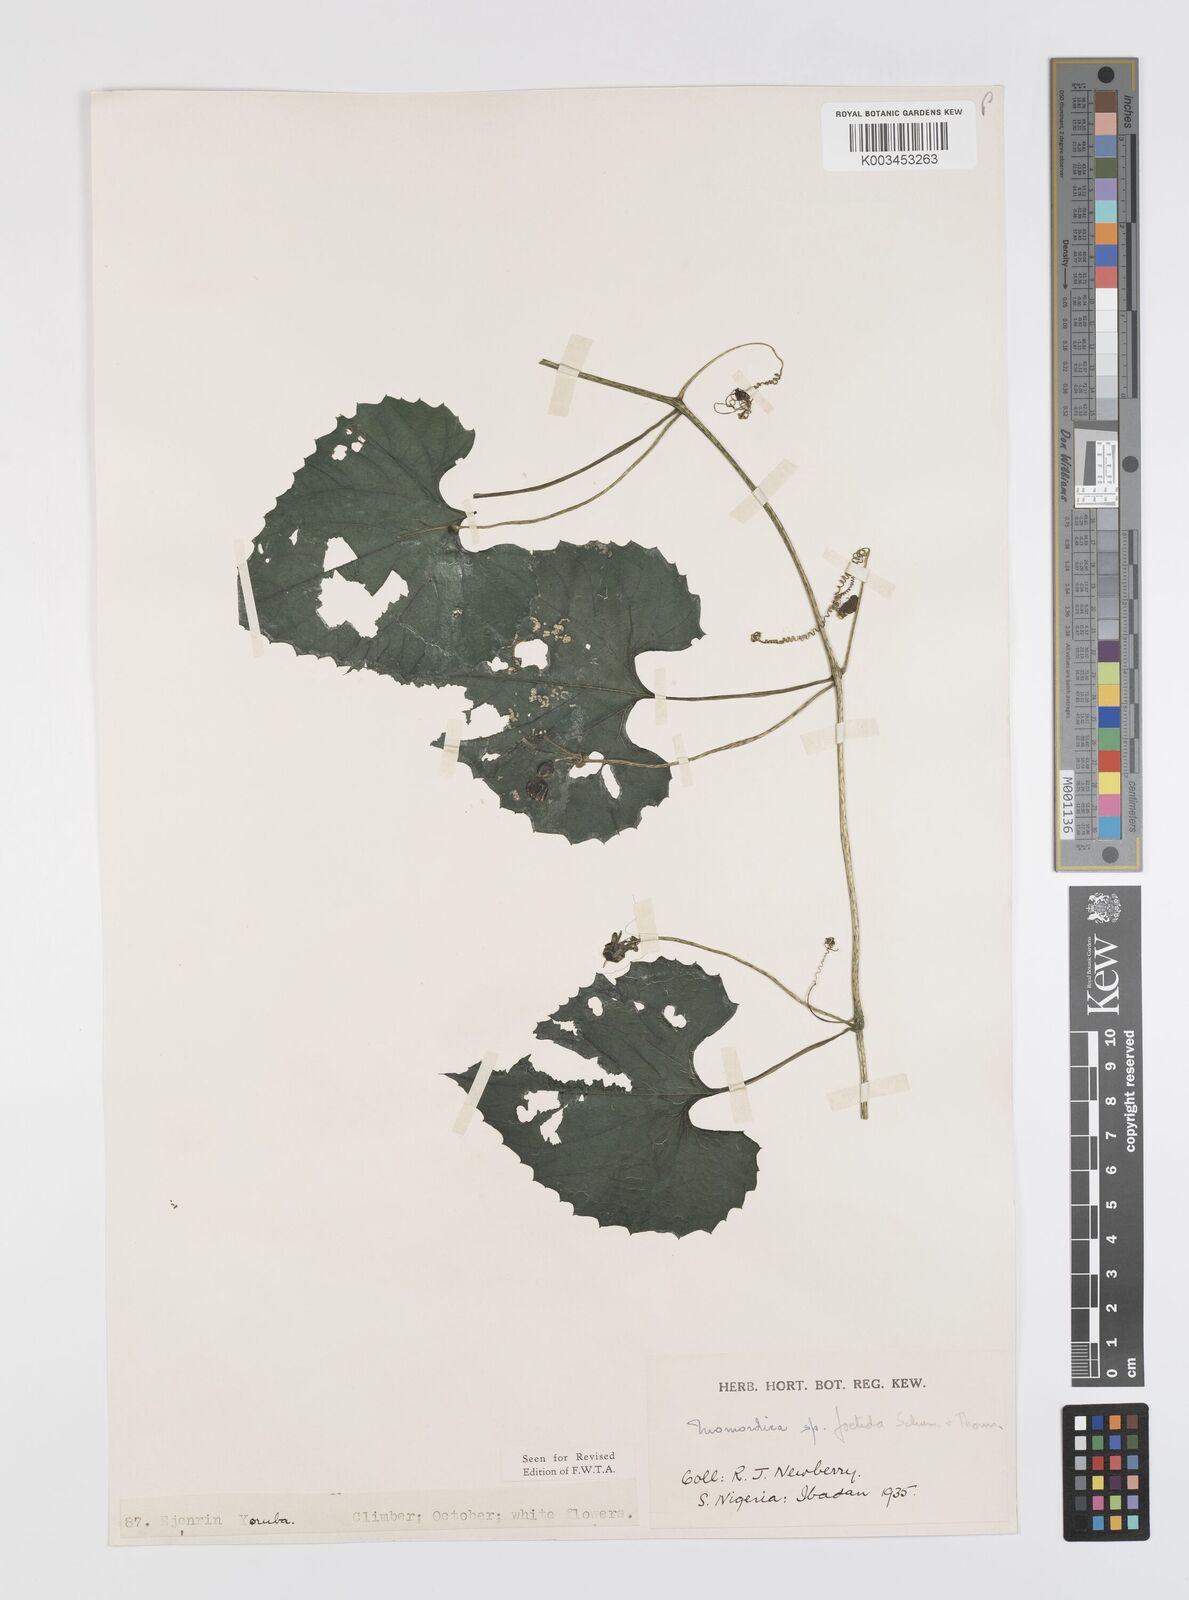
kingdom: Plantae
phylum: Tracheophyta
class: Magnoliopsida
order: Cucurbitales
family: Cucurbitaceae
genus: Momordica
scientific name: Momordica foetida
